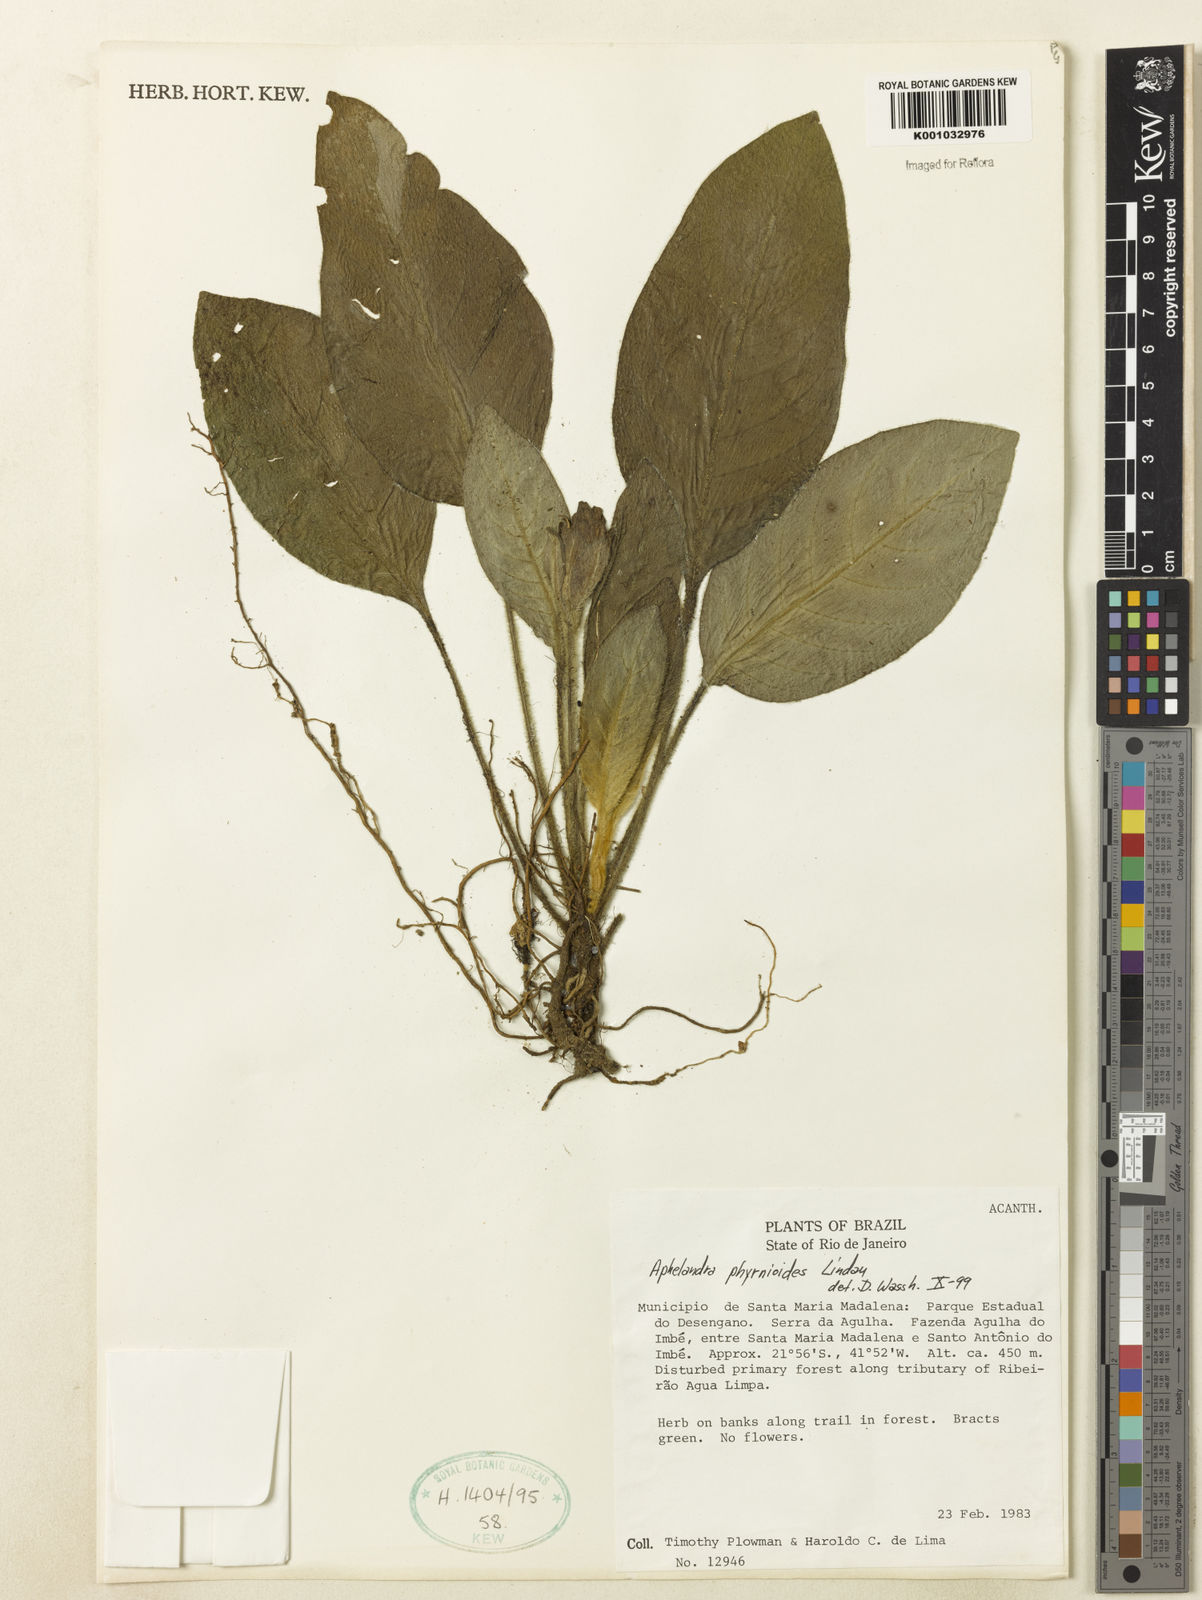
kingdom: Plantae
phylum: Tracheophyta
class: Magnoliopsida
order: Lamiales
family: Acanthaceae
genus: Aphelandra
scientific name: Aphelandra phrynioides
